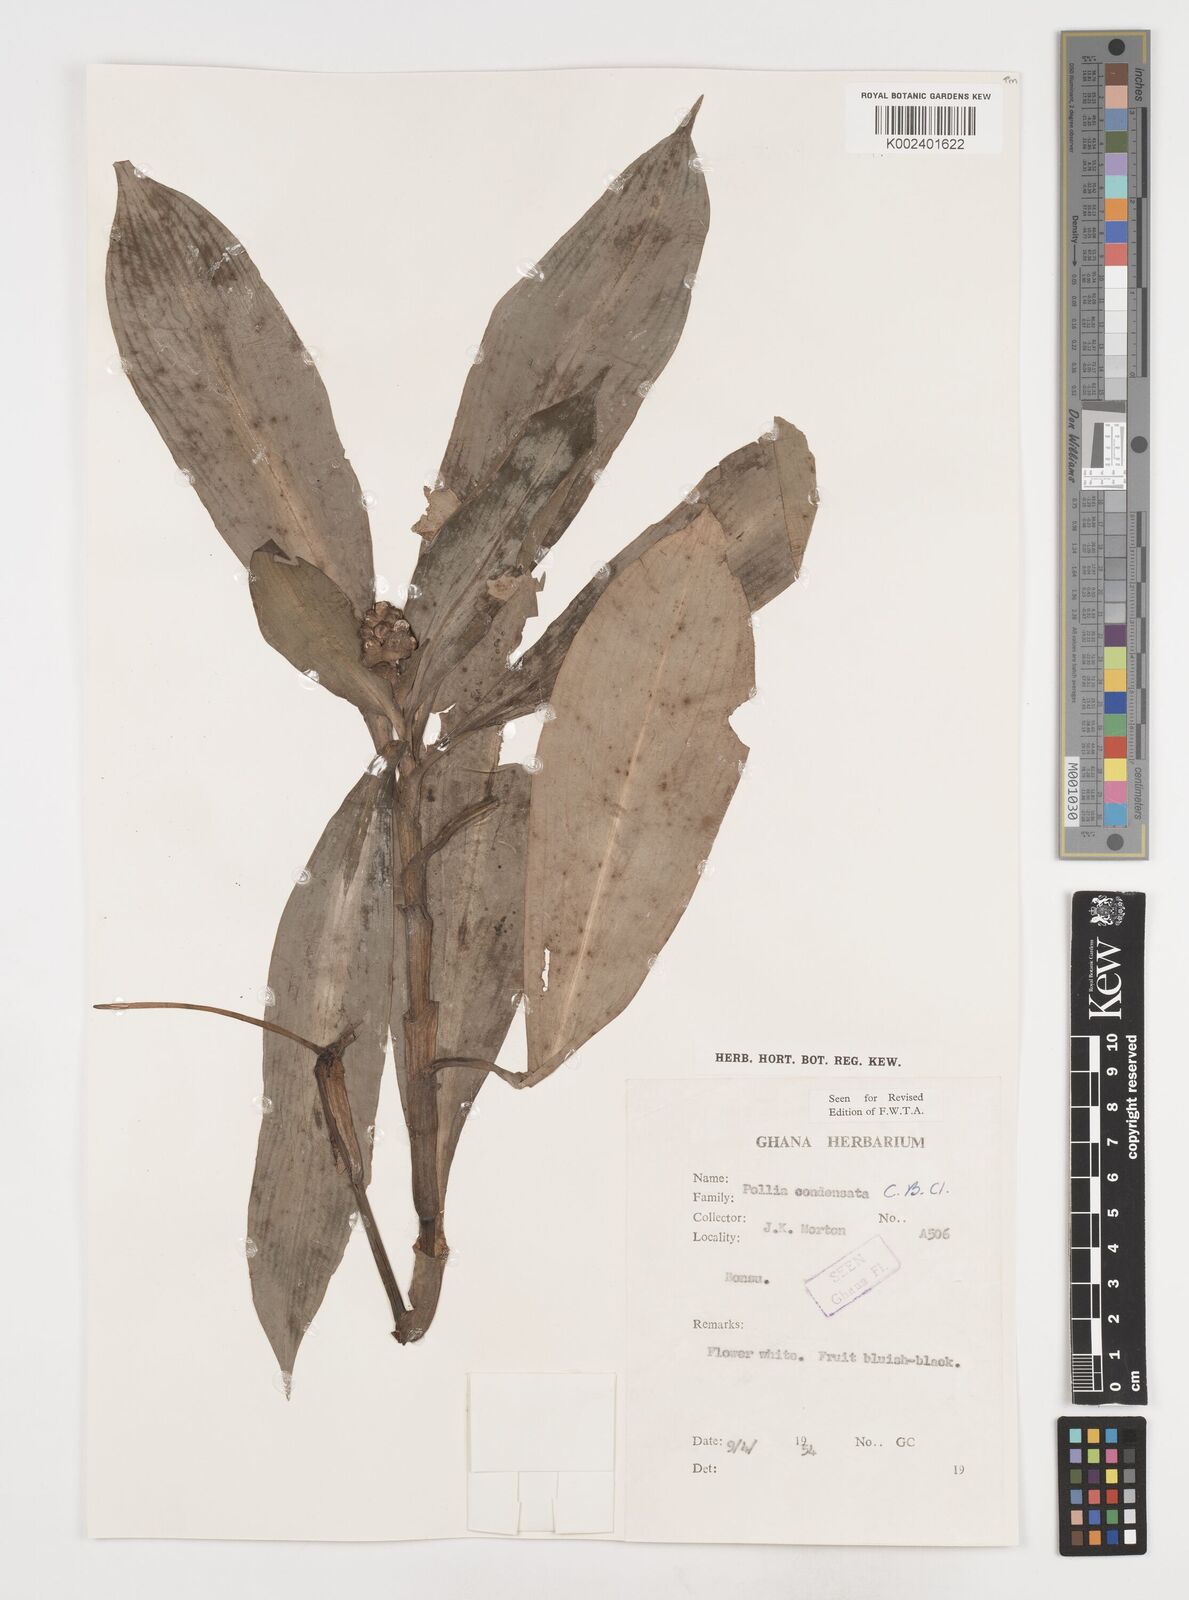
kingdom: Plantae
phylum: Tracheophyta
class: Liliopsida
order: Commelinales
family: Commelinaceae
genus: Pollia
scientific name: Pollia condensata
